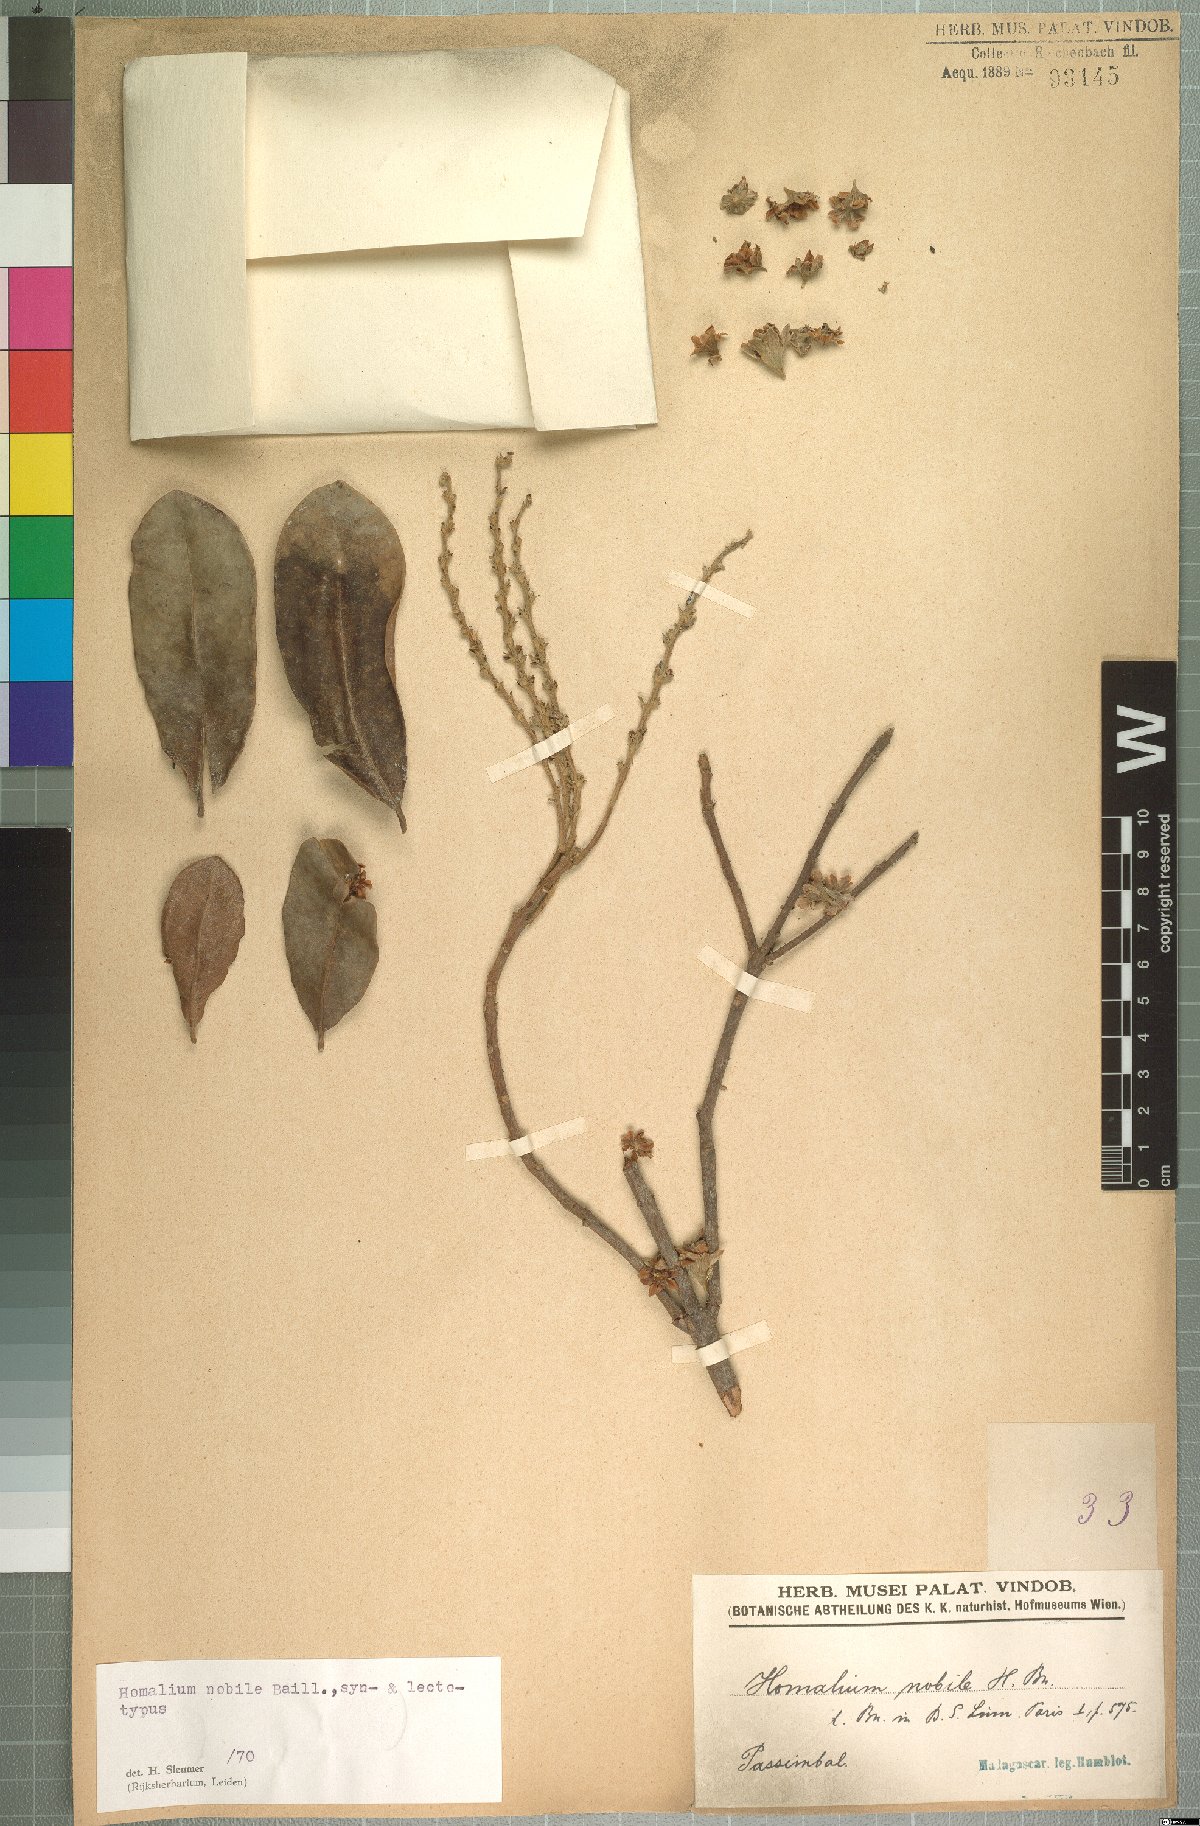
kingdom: Plantae
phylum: Tracheophyta
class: Magnoliopsida
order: Malpighiales
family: Salicaceae
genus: Homalium
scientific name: Homalium nobile
